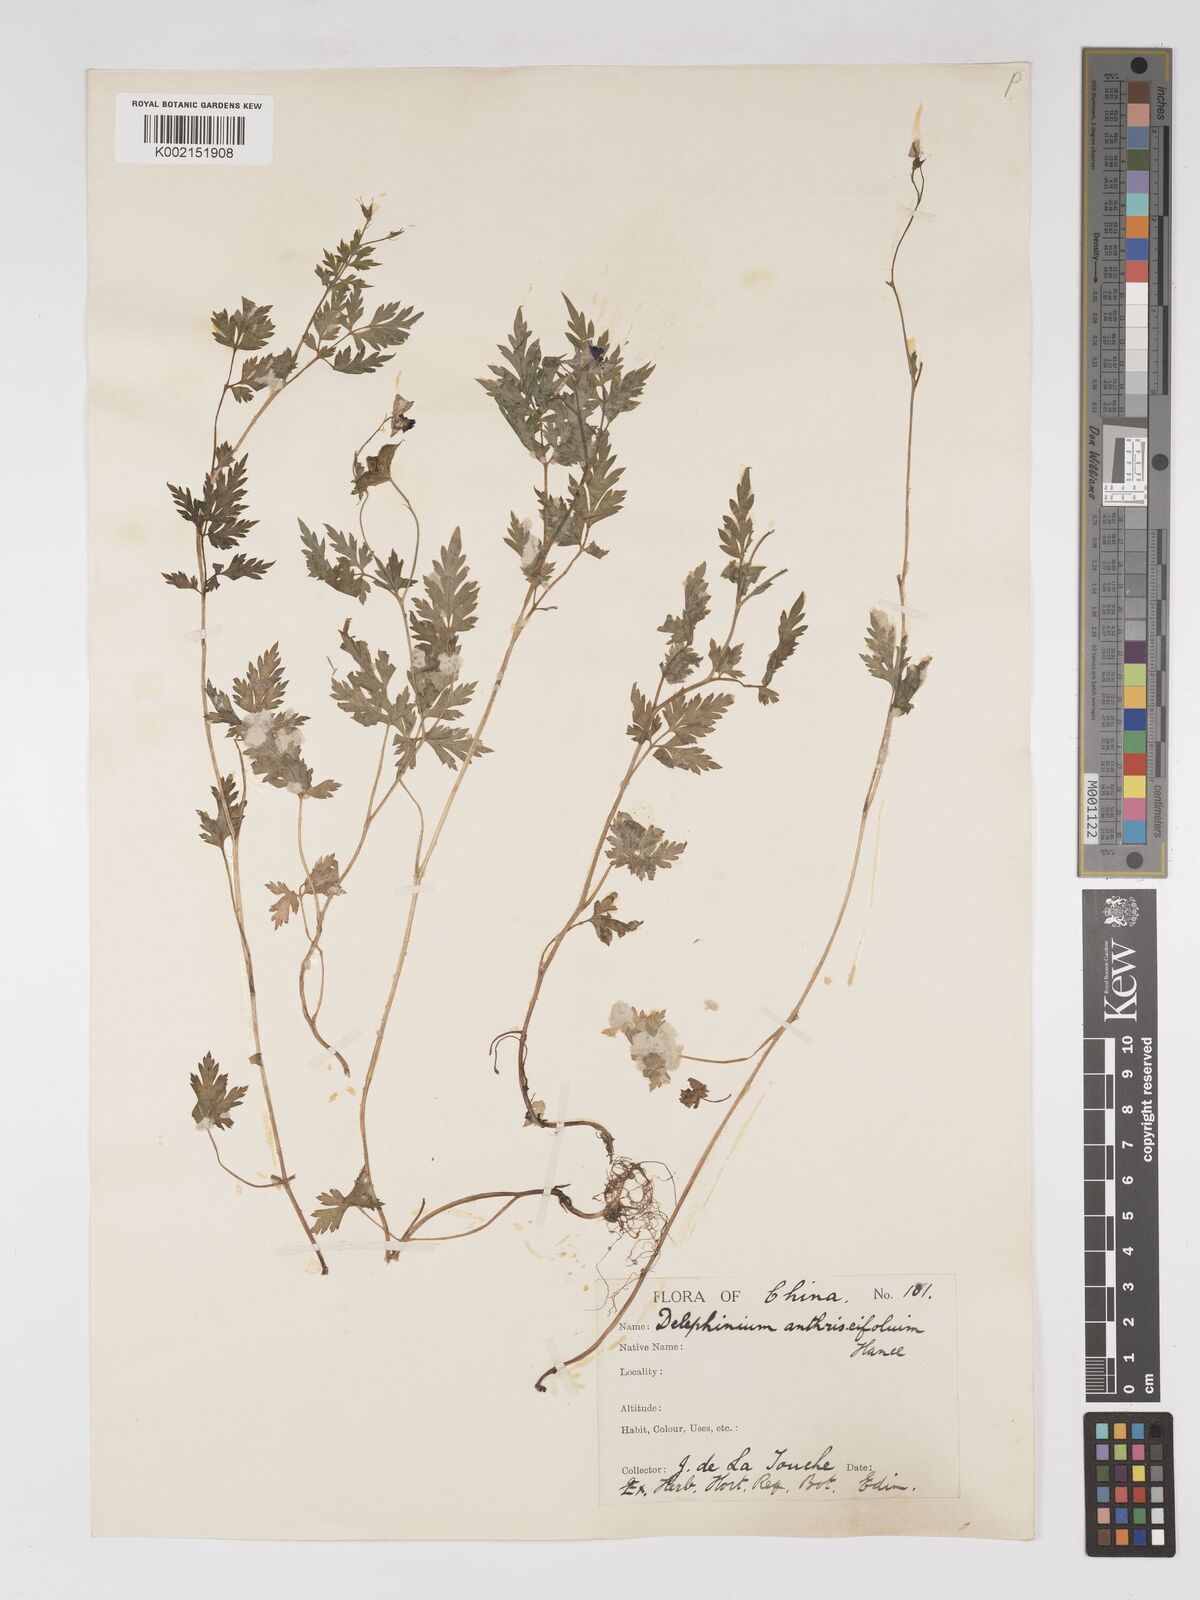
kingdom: Plantae
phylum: Tracheophyta
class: Magnoliopsida
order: Ranunculales
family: Ranunculaceae
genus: Delphinium
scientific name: Delphinium anthriscifolium
